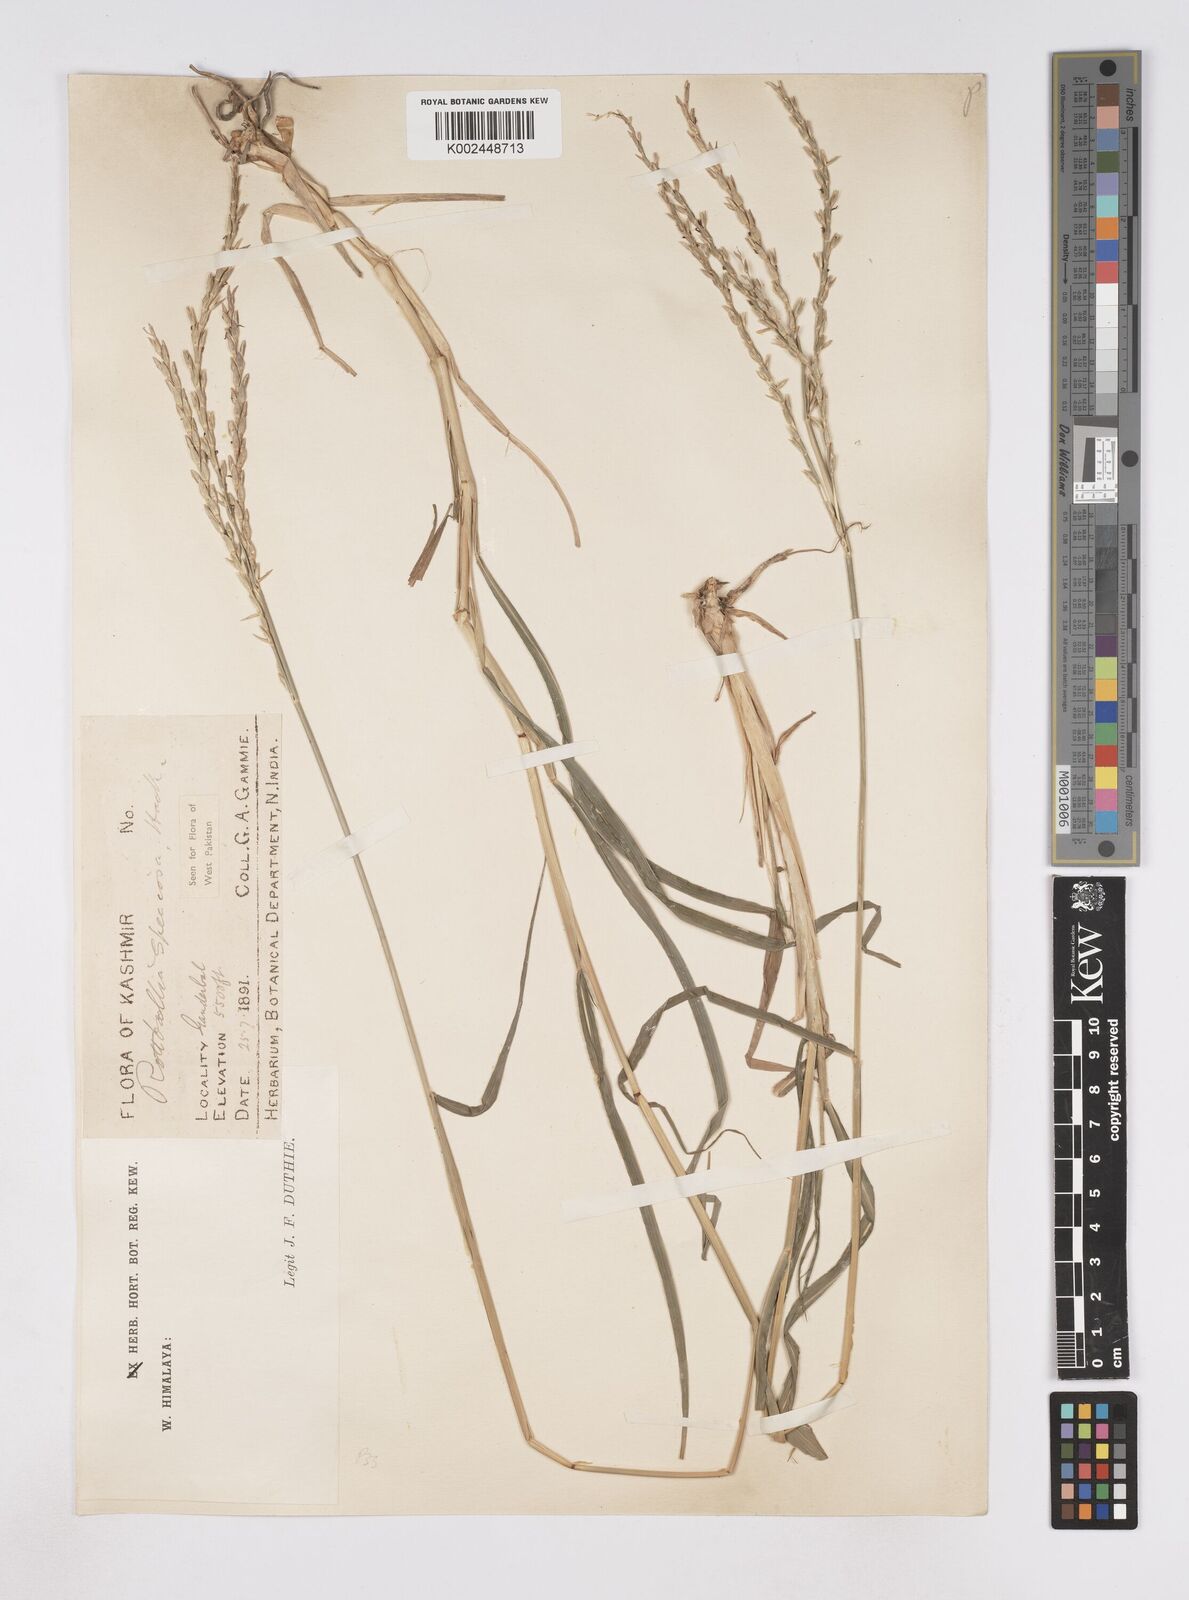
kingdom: Plantae
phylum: Tracheophyta
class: Liliopsida
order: Poales
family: Poaceae
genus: Phacelurus
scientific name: Phacelurus speciosus
